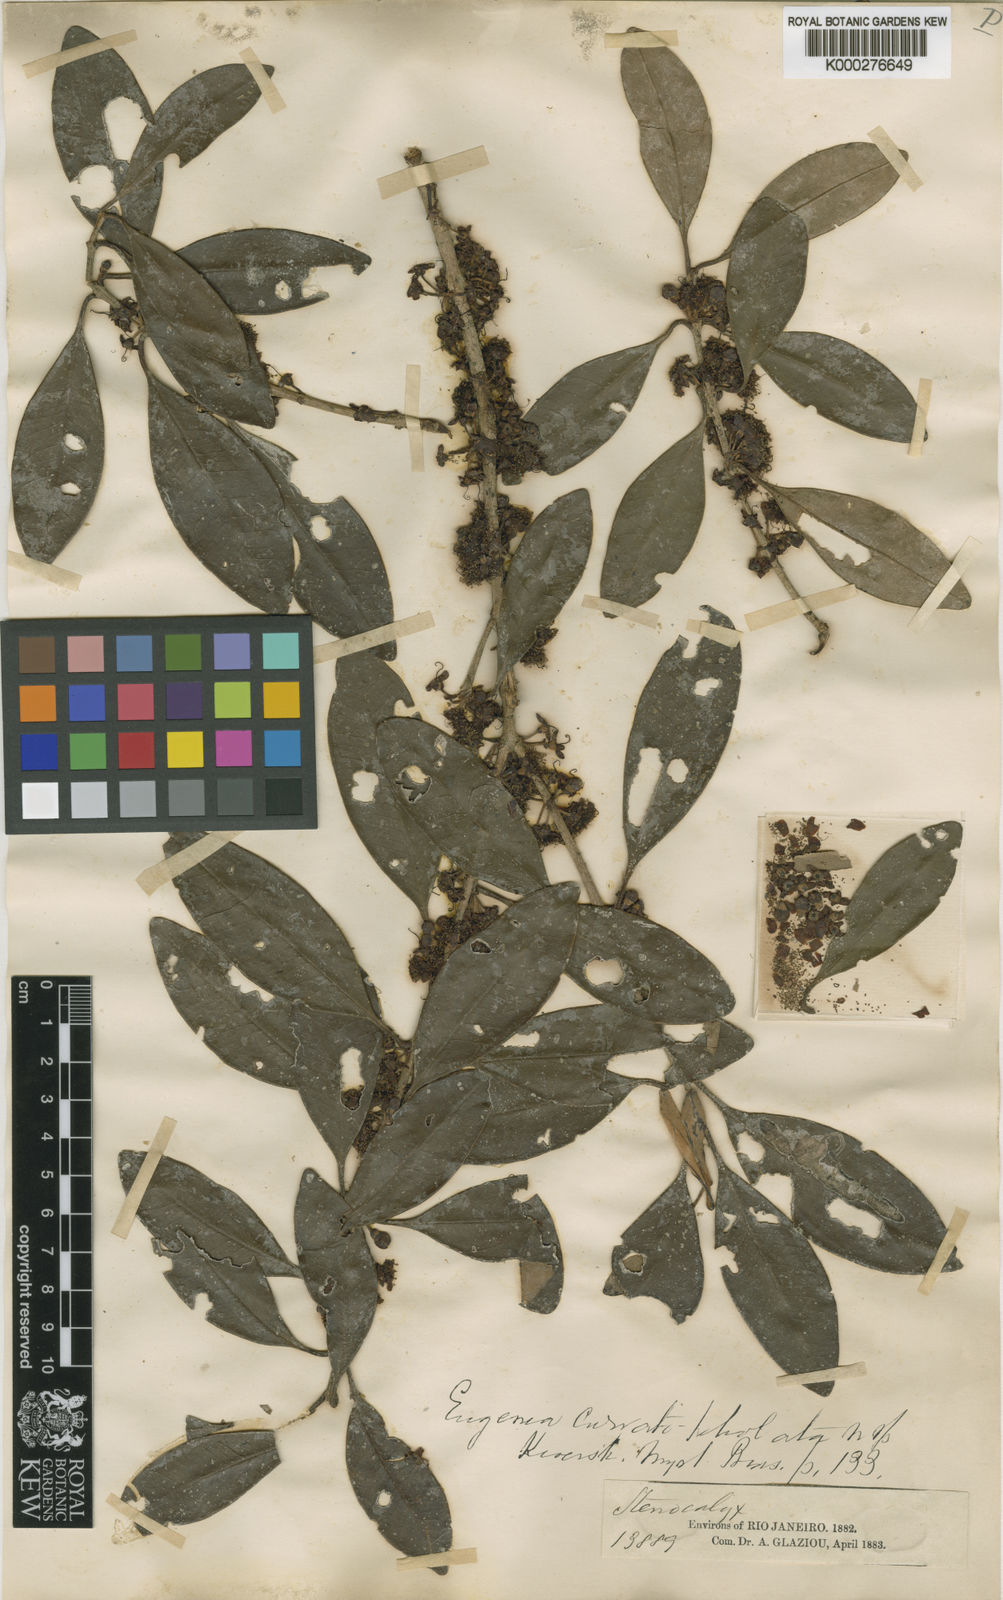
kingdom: Plantae
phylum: Tracheophyta
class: Magnoliopsida
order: Myrtales
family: Myrtaceae
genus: Eugenia
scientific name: Eugenia dodonaeifolia
